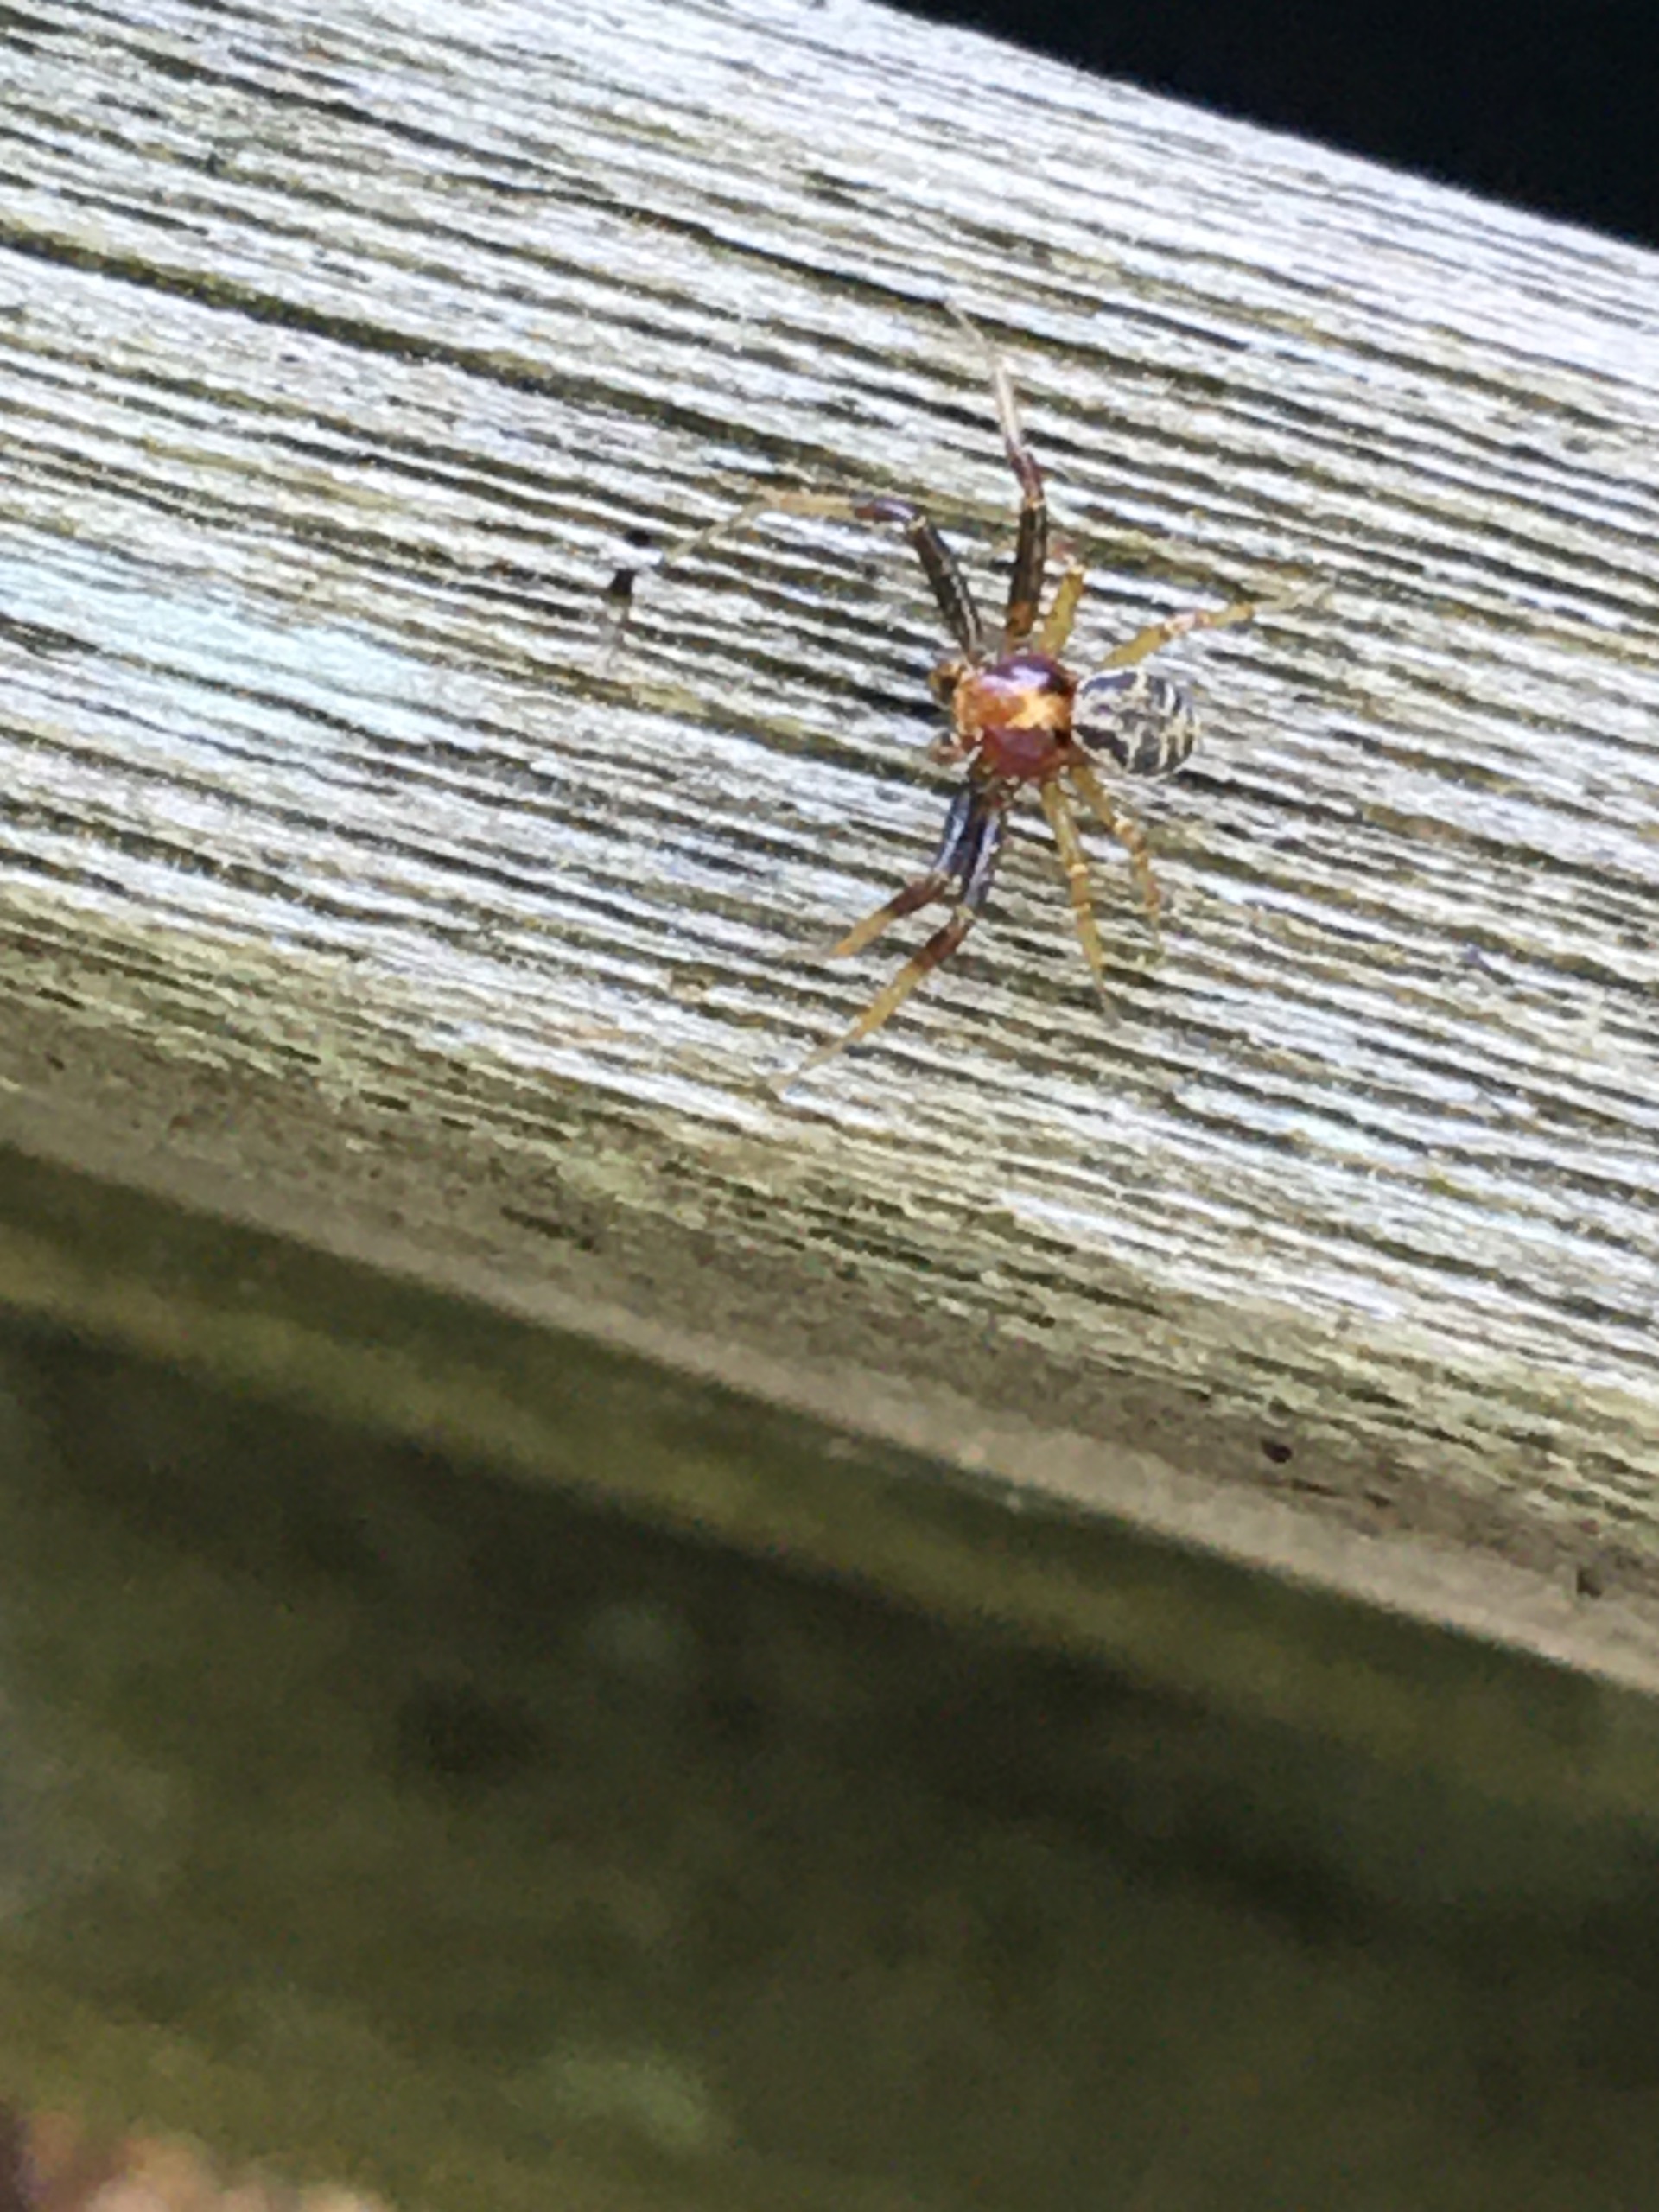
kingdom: Animalia
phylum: Arthropoda
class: Arachnida
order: Araneae
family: Thomisidae
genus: Xysticus
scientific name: Xysticus lanio
